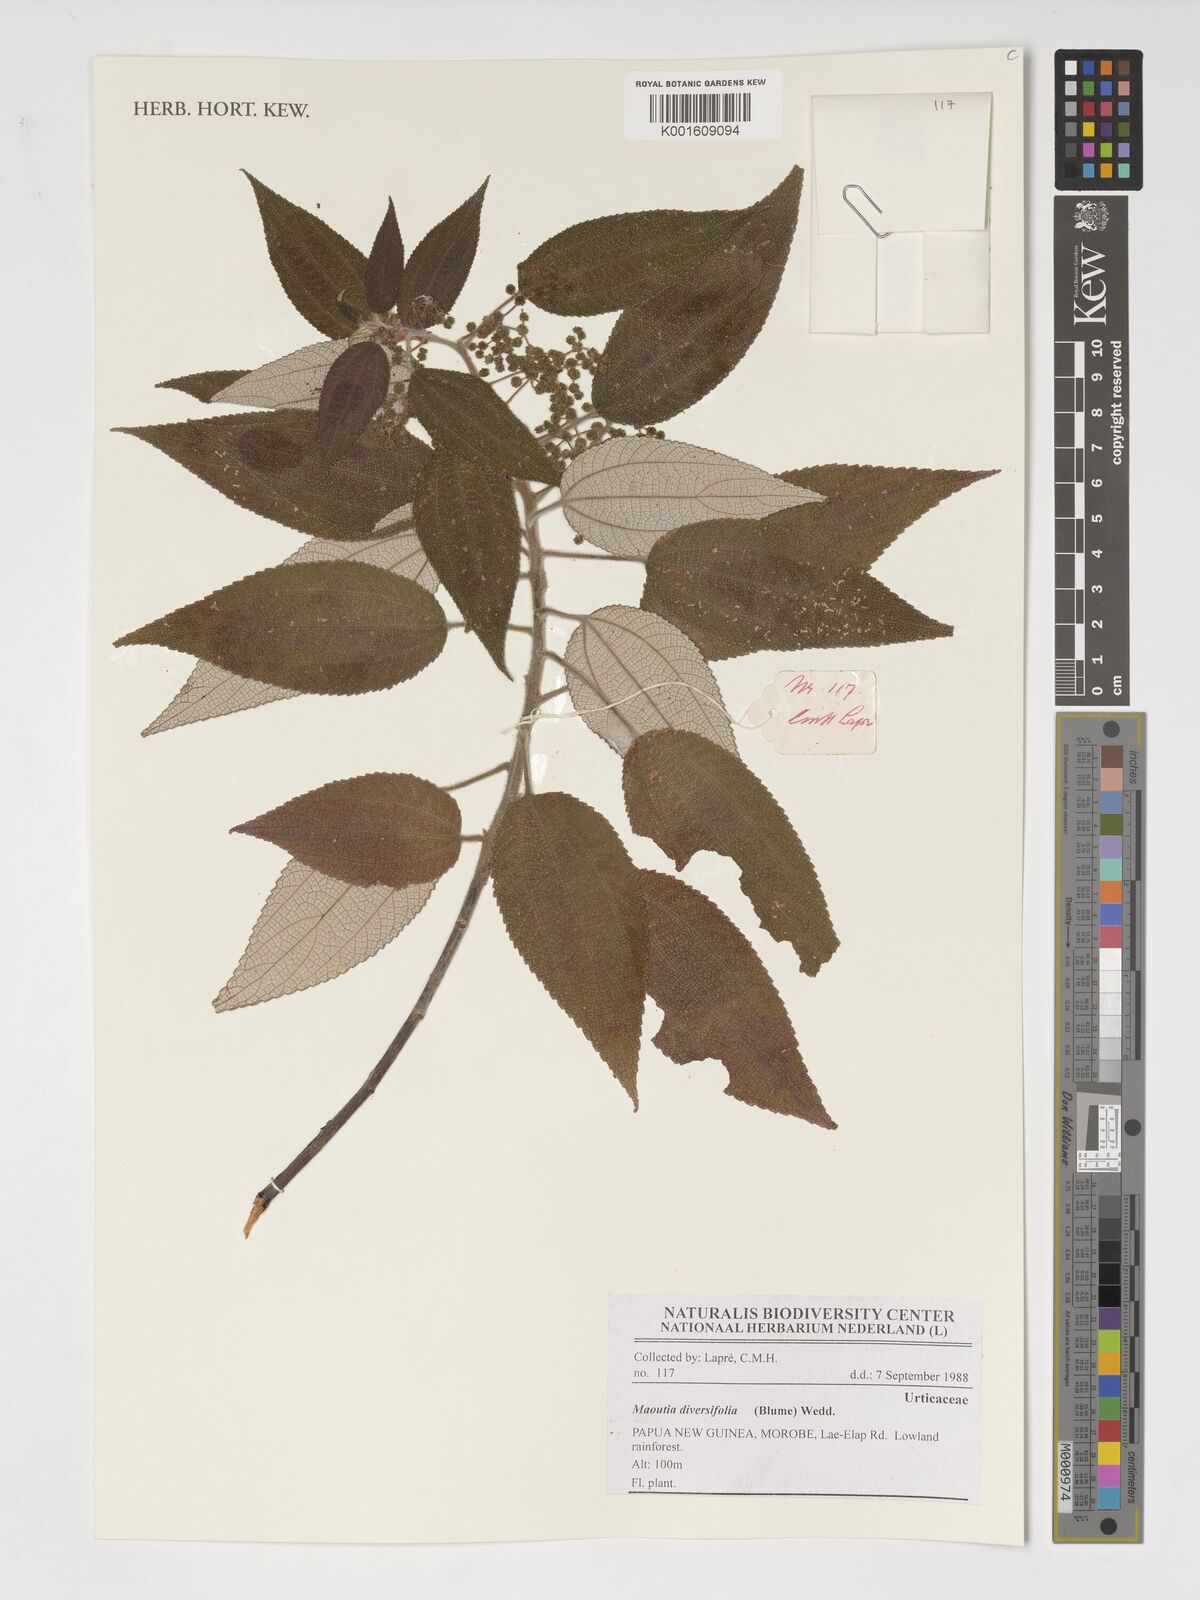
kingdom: Plantae
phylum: Tracheophyta
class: Magnoliopsida
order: Rosales
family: Urticaceae
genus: Maoutia
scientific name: Maoutia diversifolia
